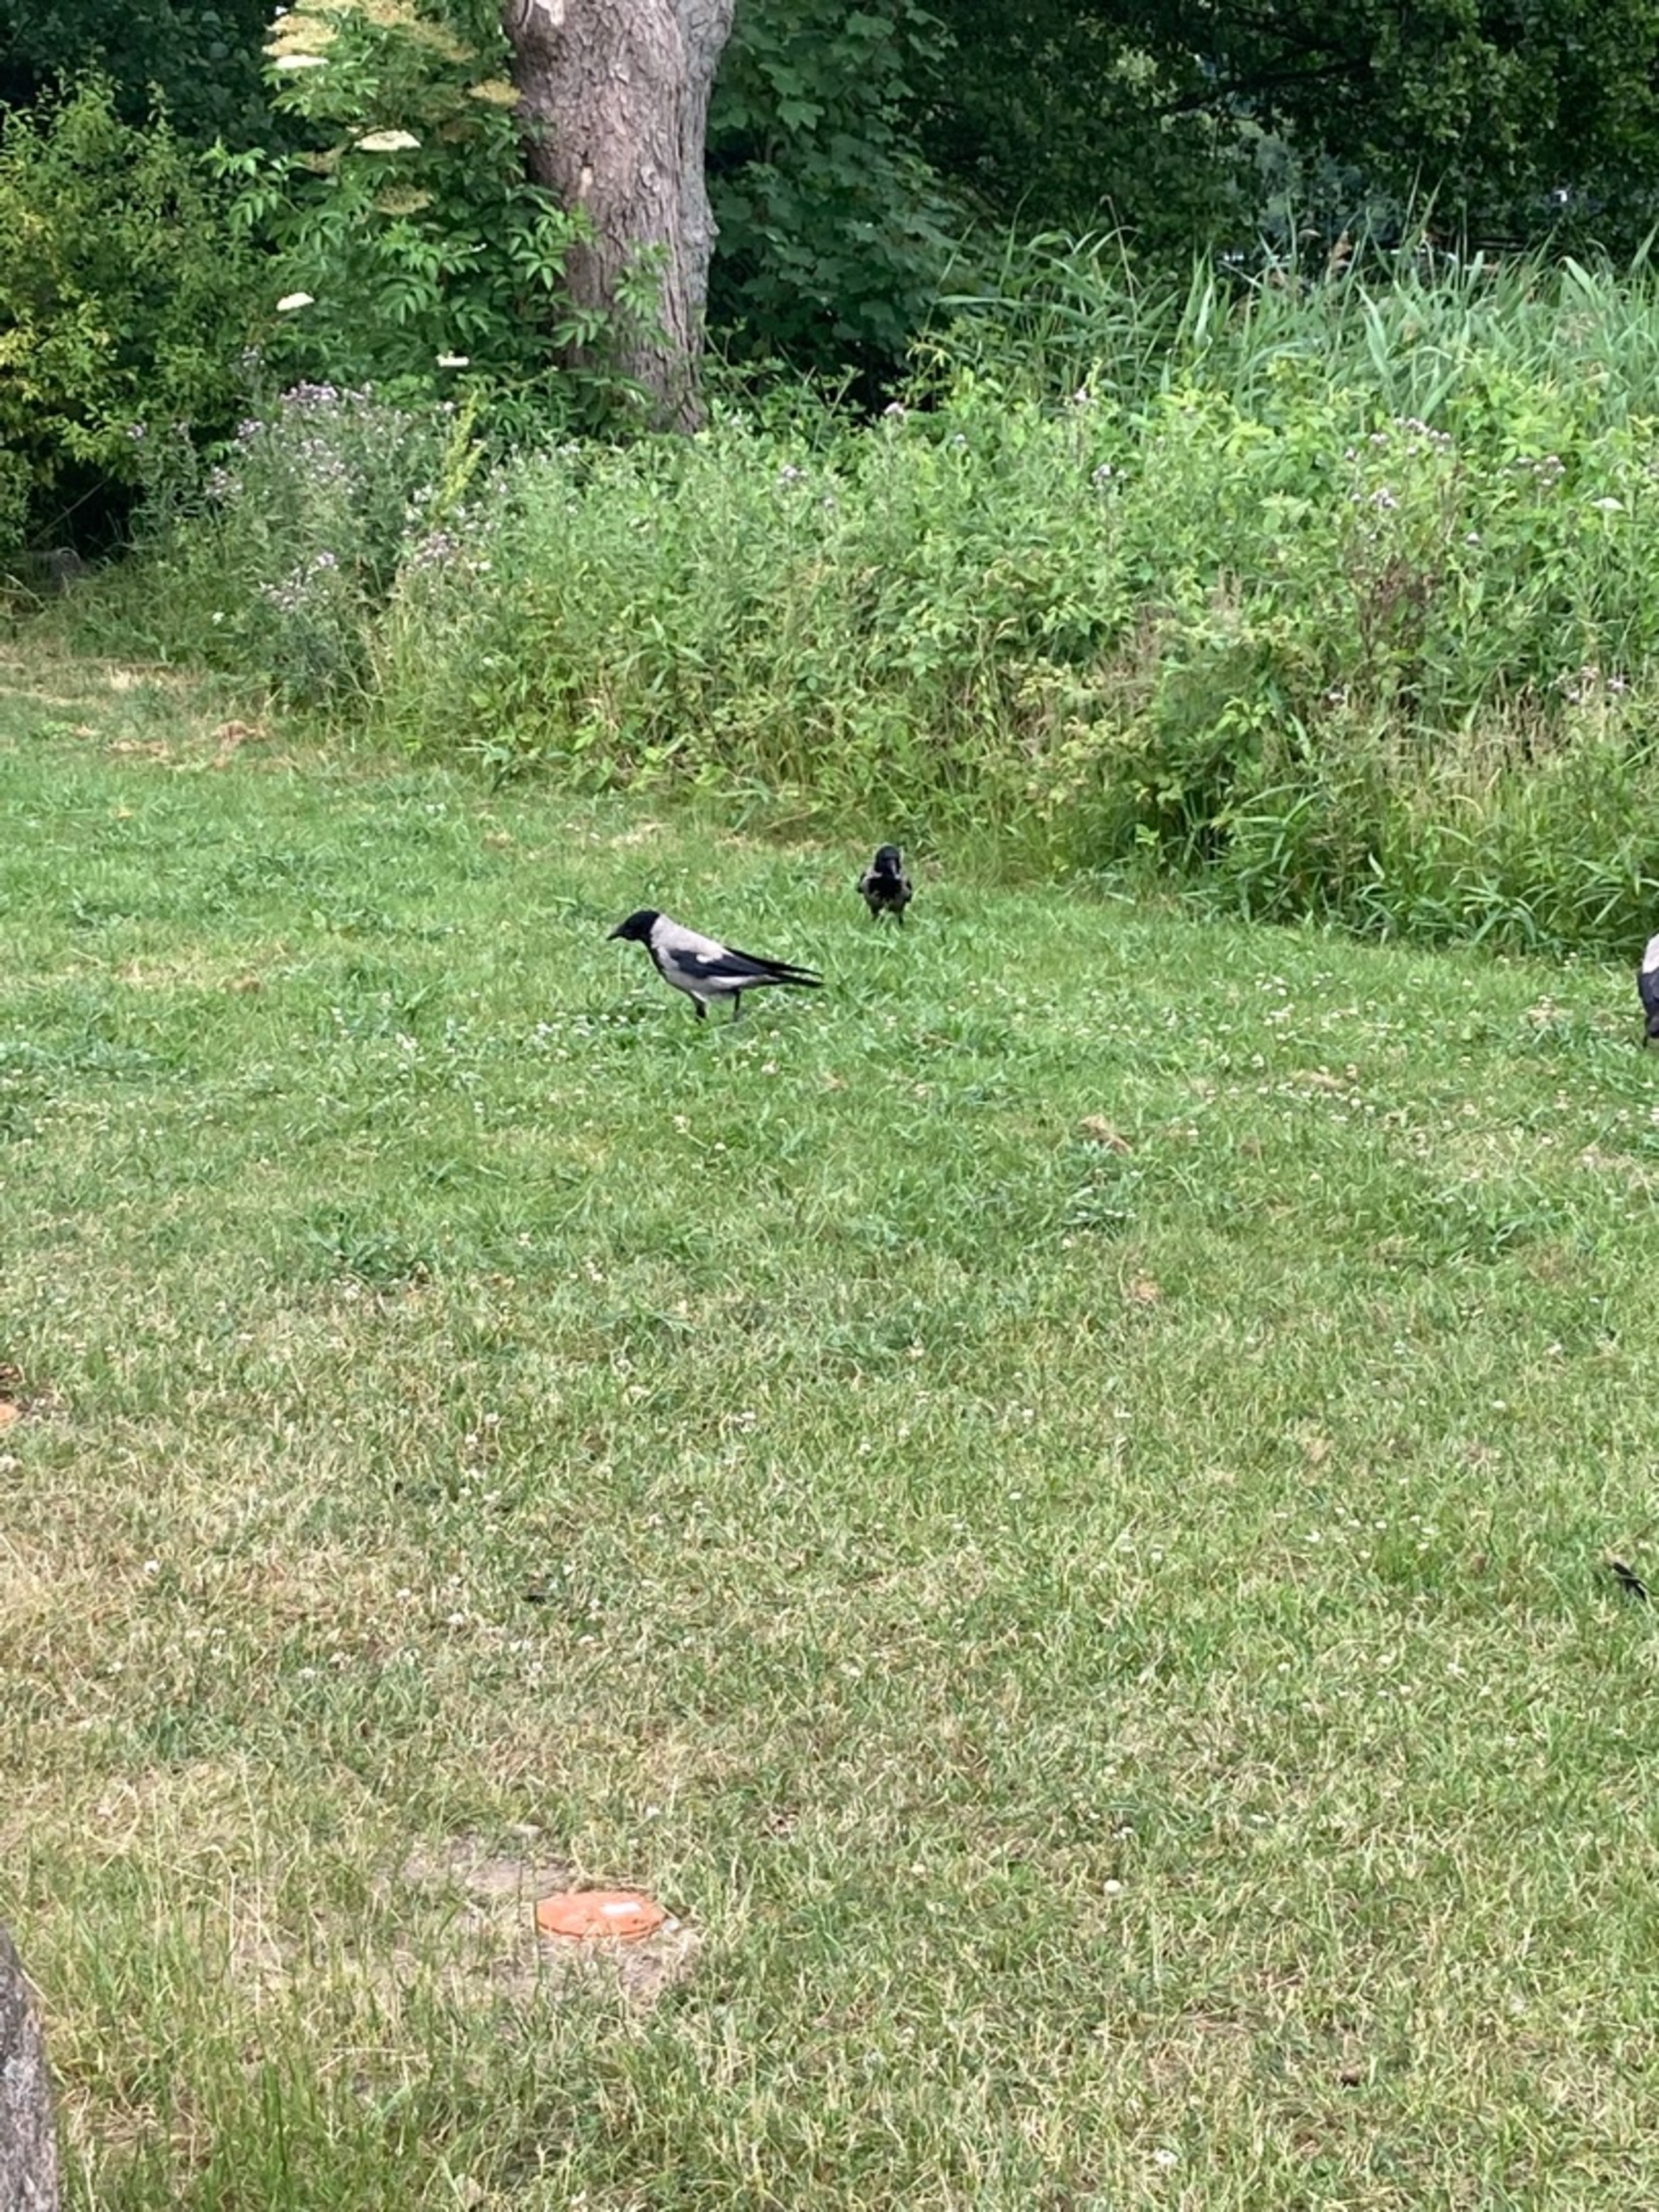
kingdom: Animalia
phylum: Chordata
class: Aves
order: Passeriformes
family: Corvidae
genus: Corvus
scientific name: Corvus cornix
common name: Gråkrage
